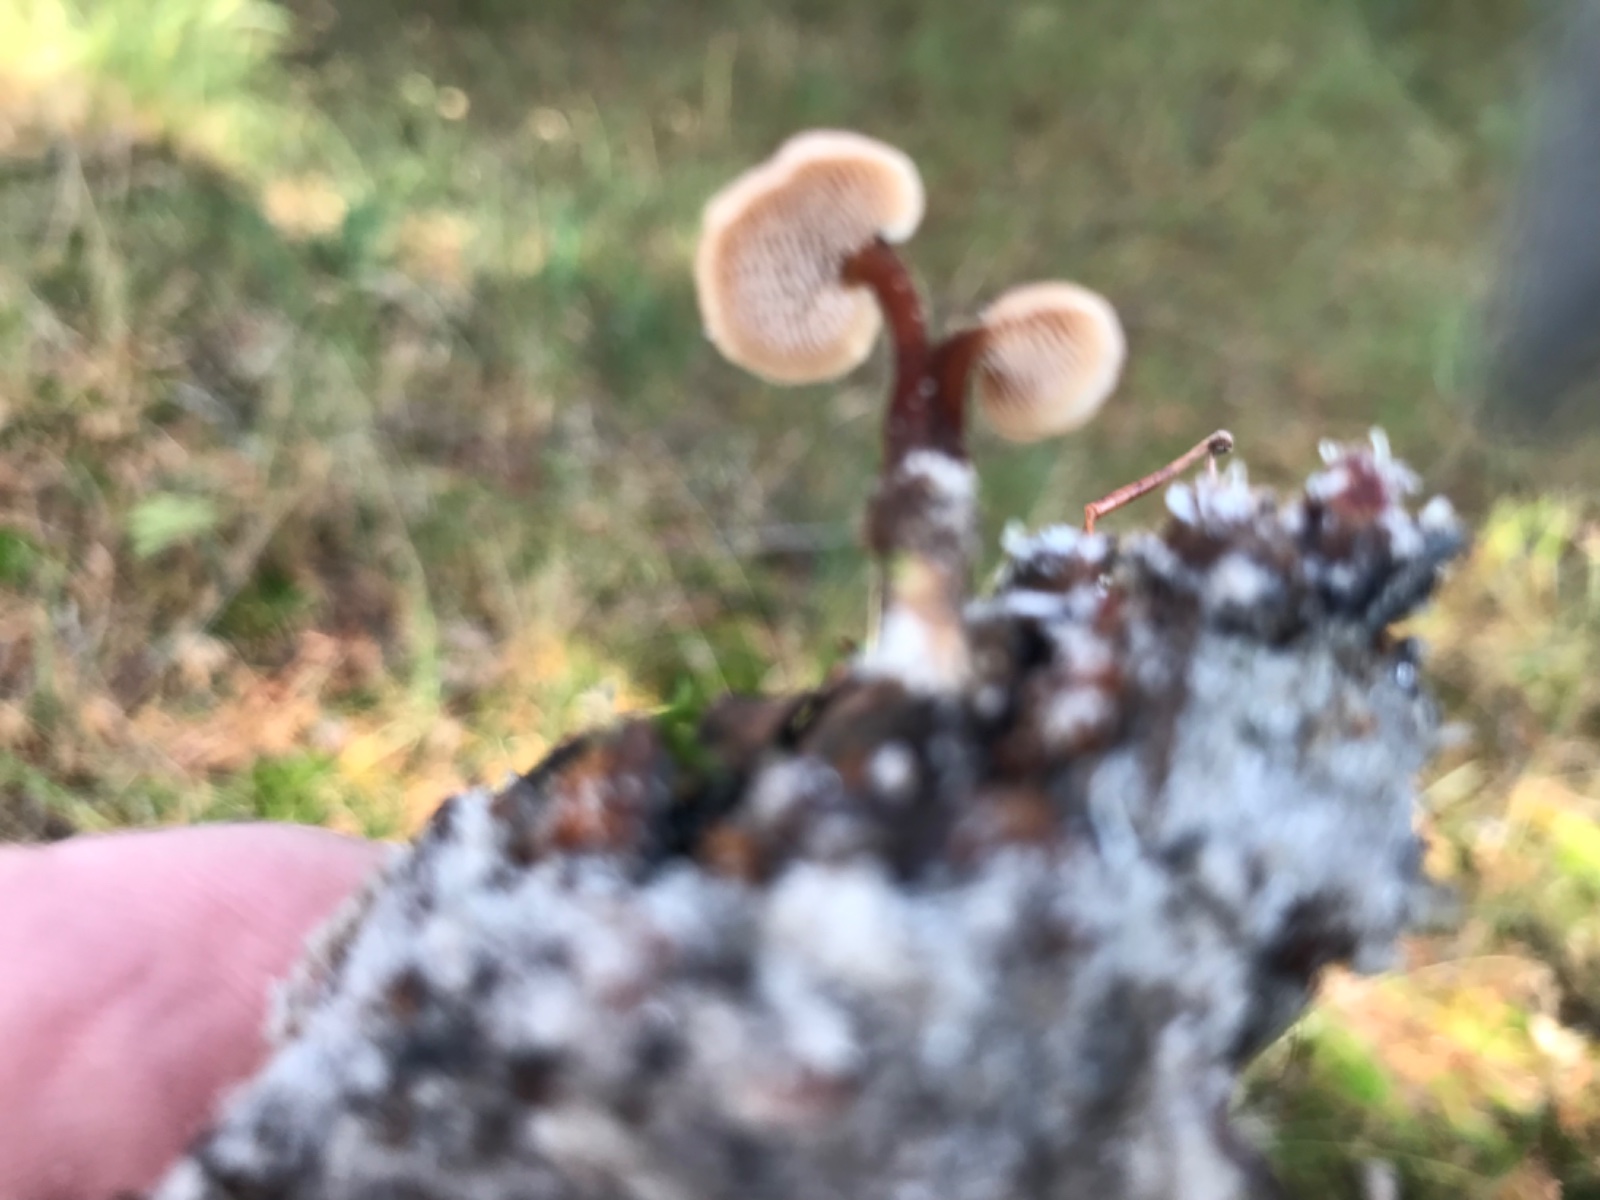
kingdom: Fungi
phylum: Basidiomycota
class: Agaricomycetes
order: Russulales
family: Auriscalpiaceae
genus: Auriscalpium
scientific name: Auriscalpium vulgare
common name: koglepigsvamp
